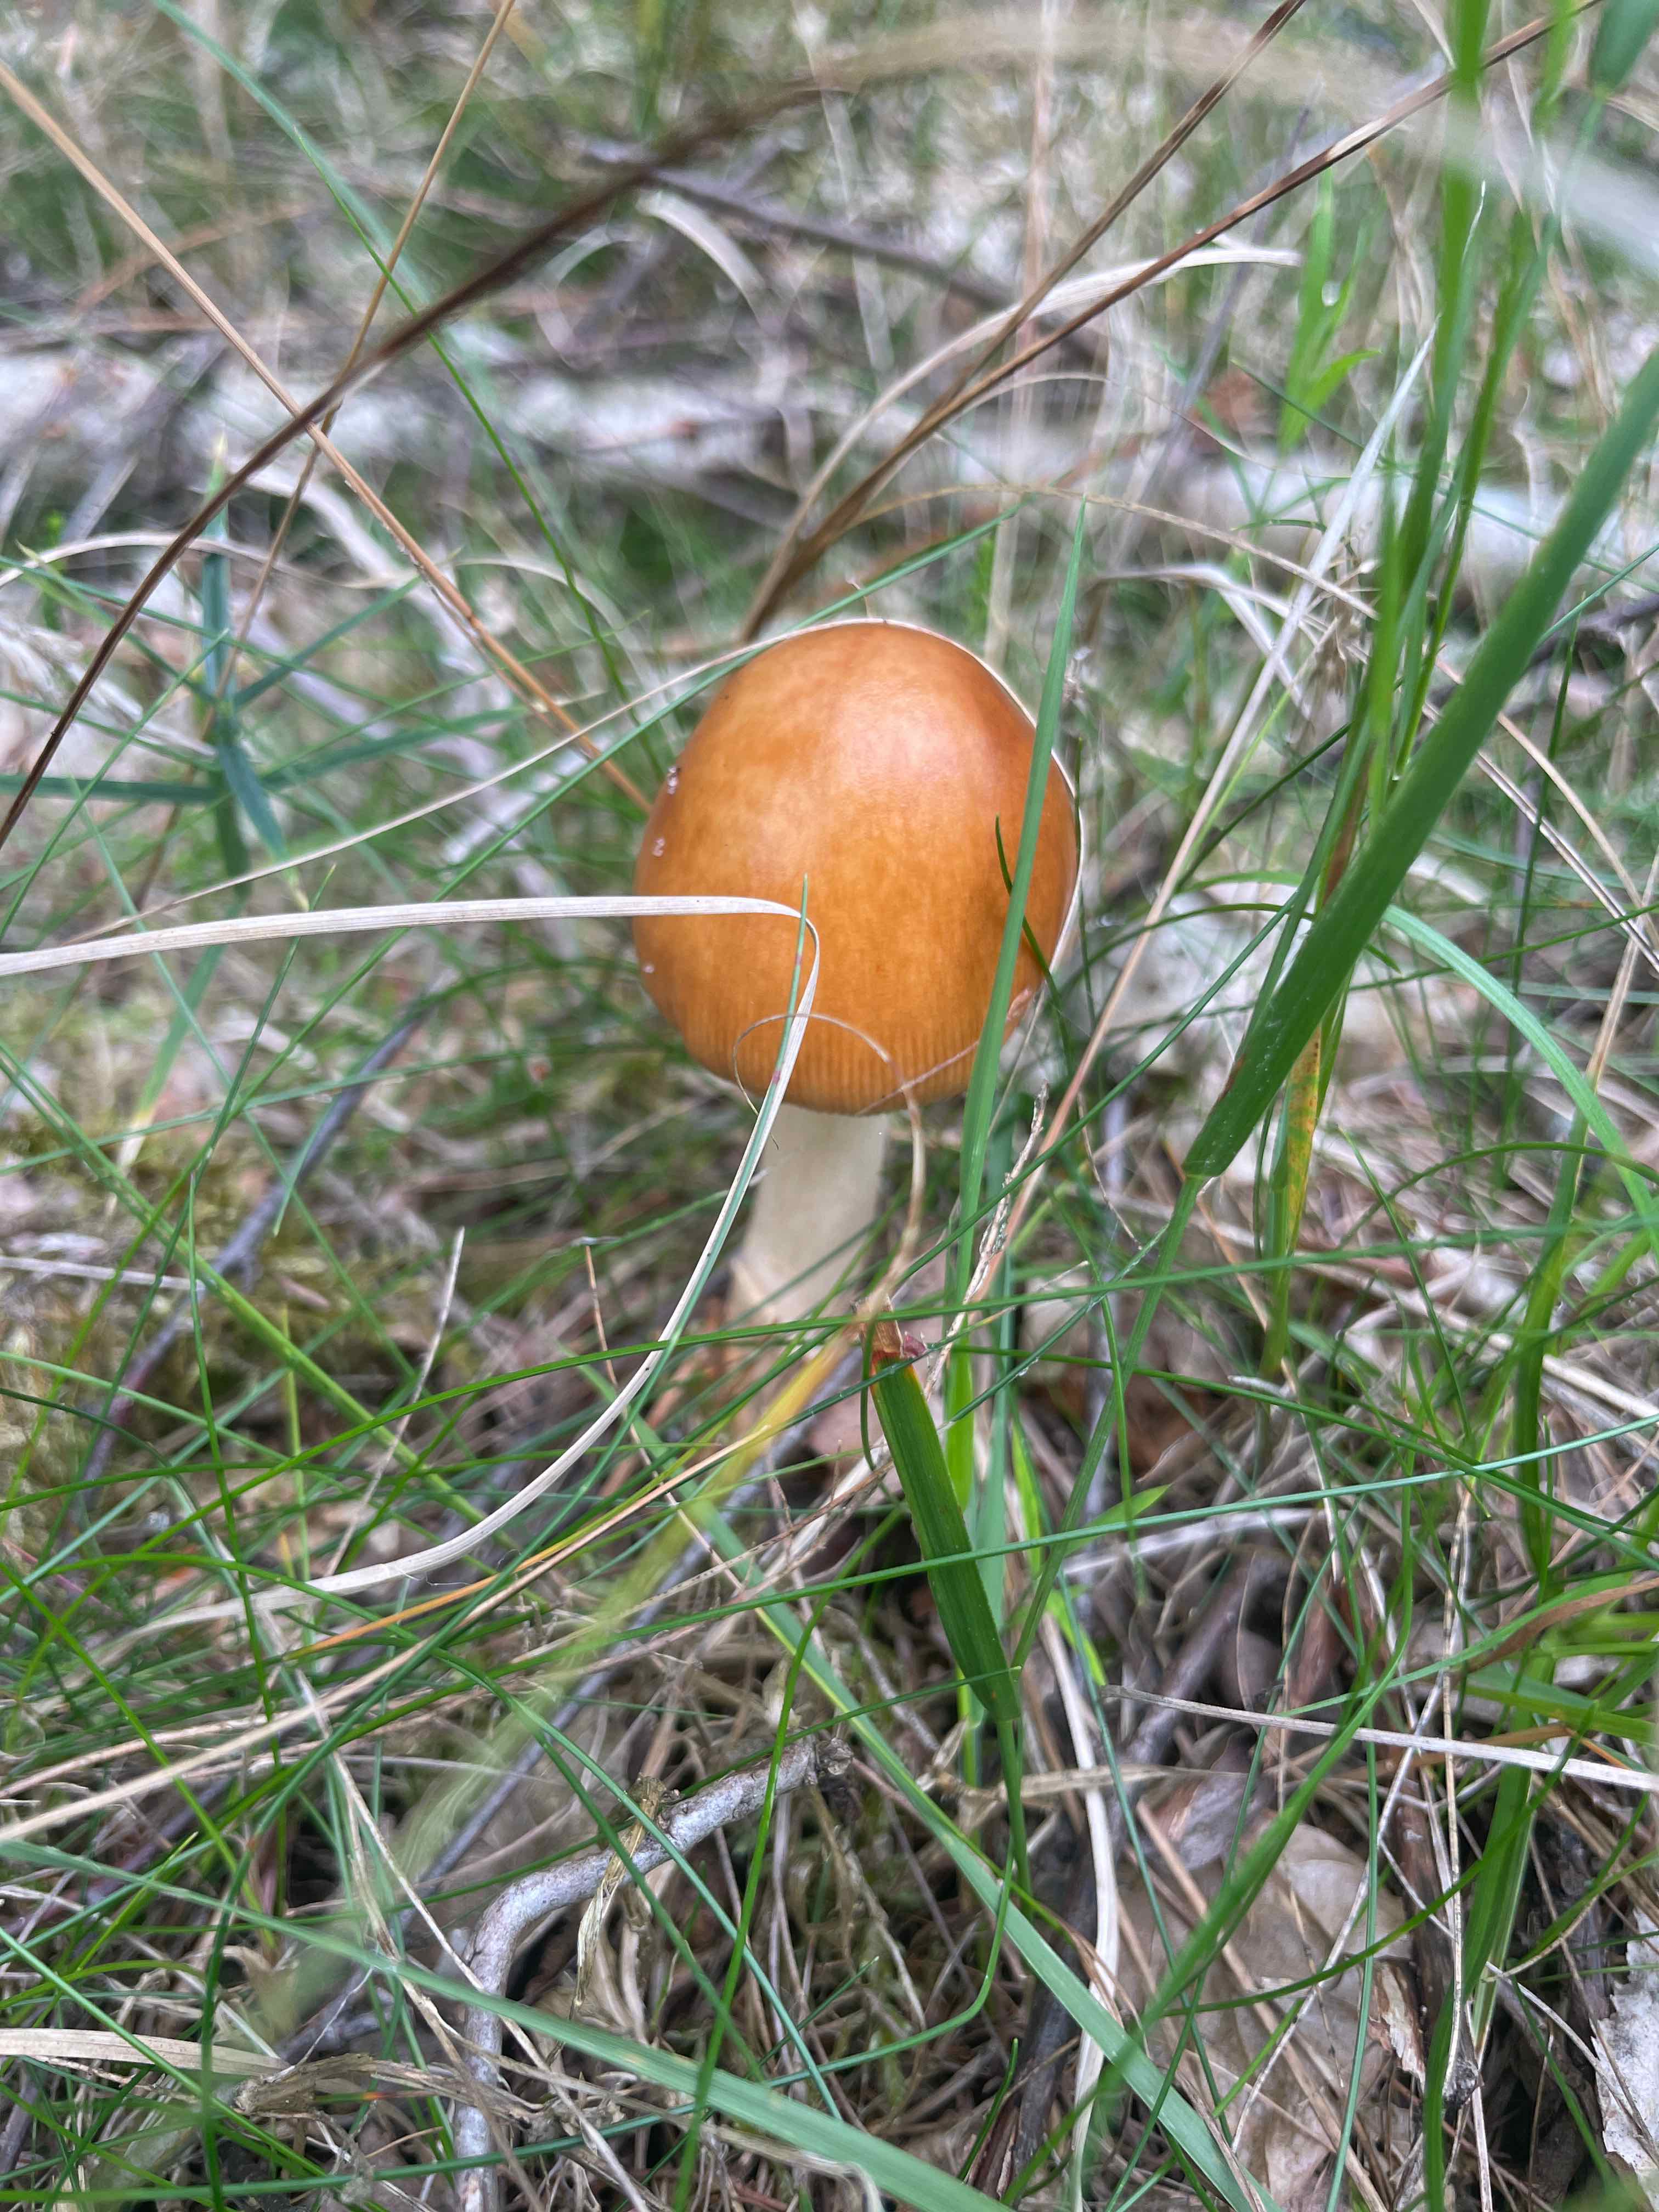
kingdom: Fungi
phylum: Basidiomycota
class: Agaricomycetes
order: Agaricales
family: Amanitaceae
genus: Amanita
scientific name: Amanita
